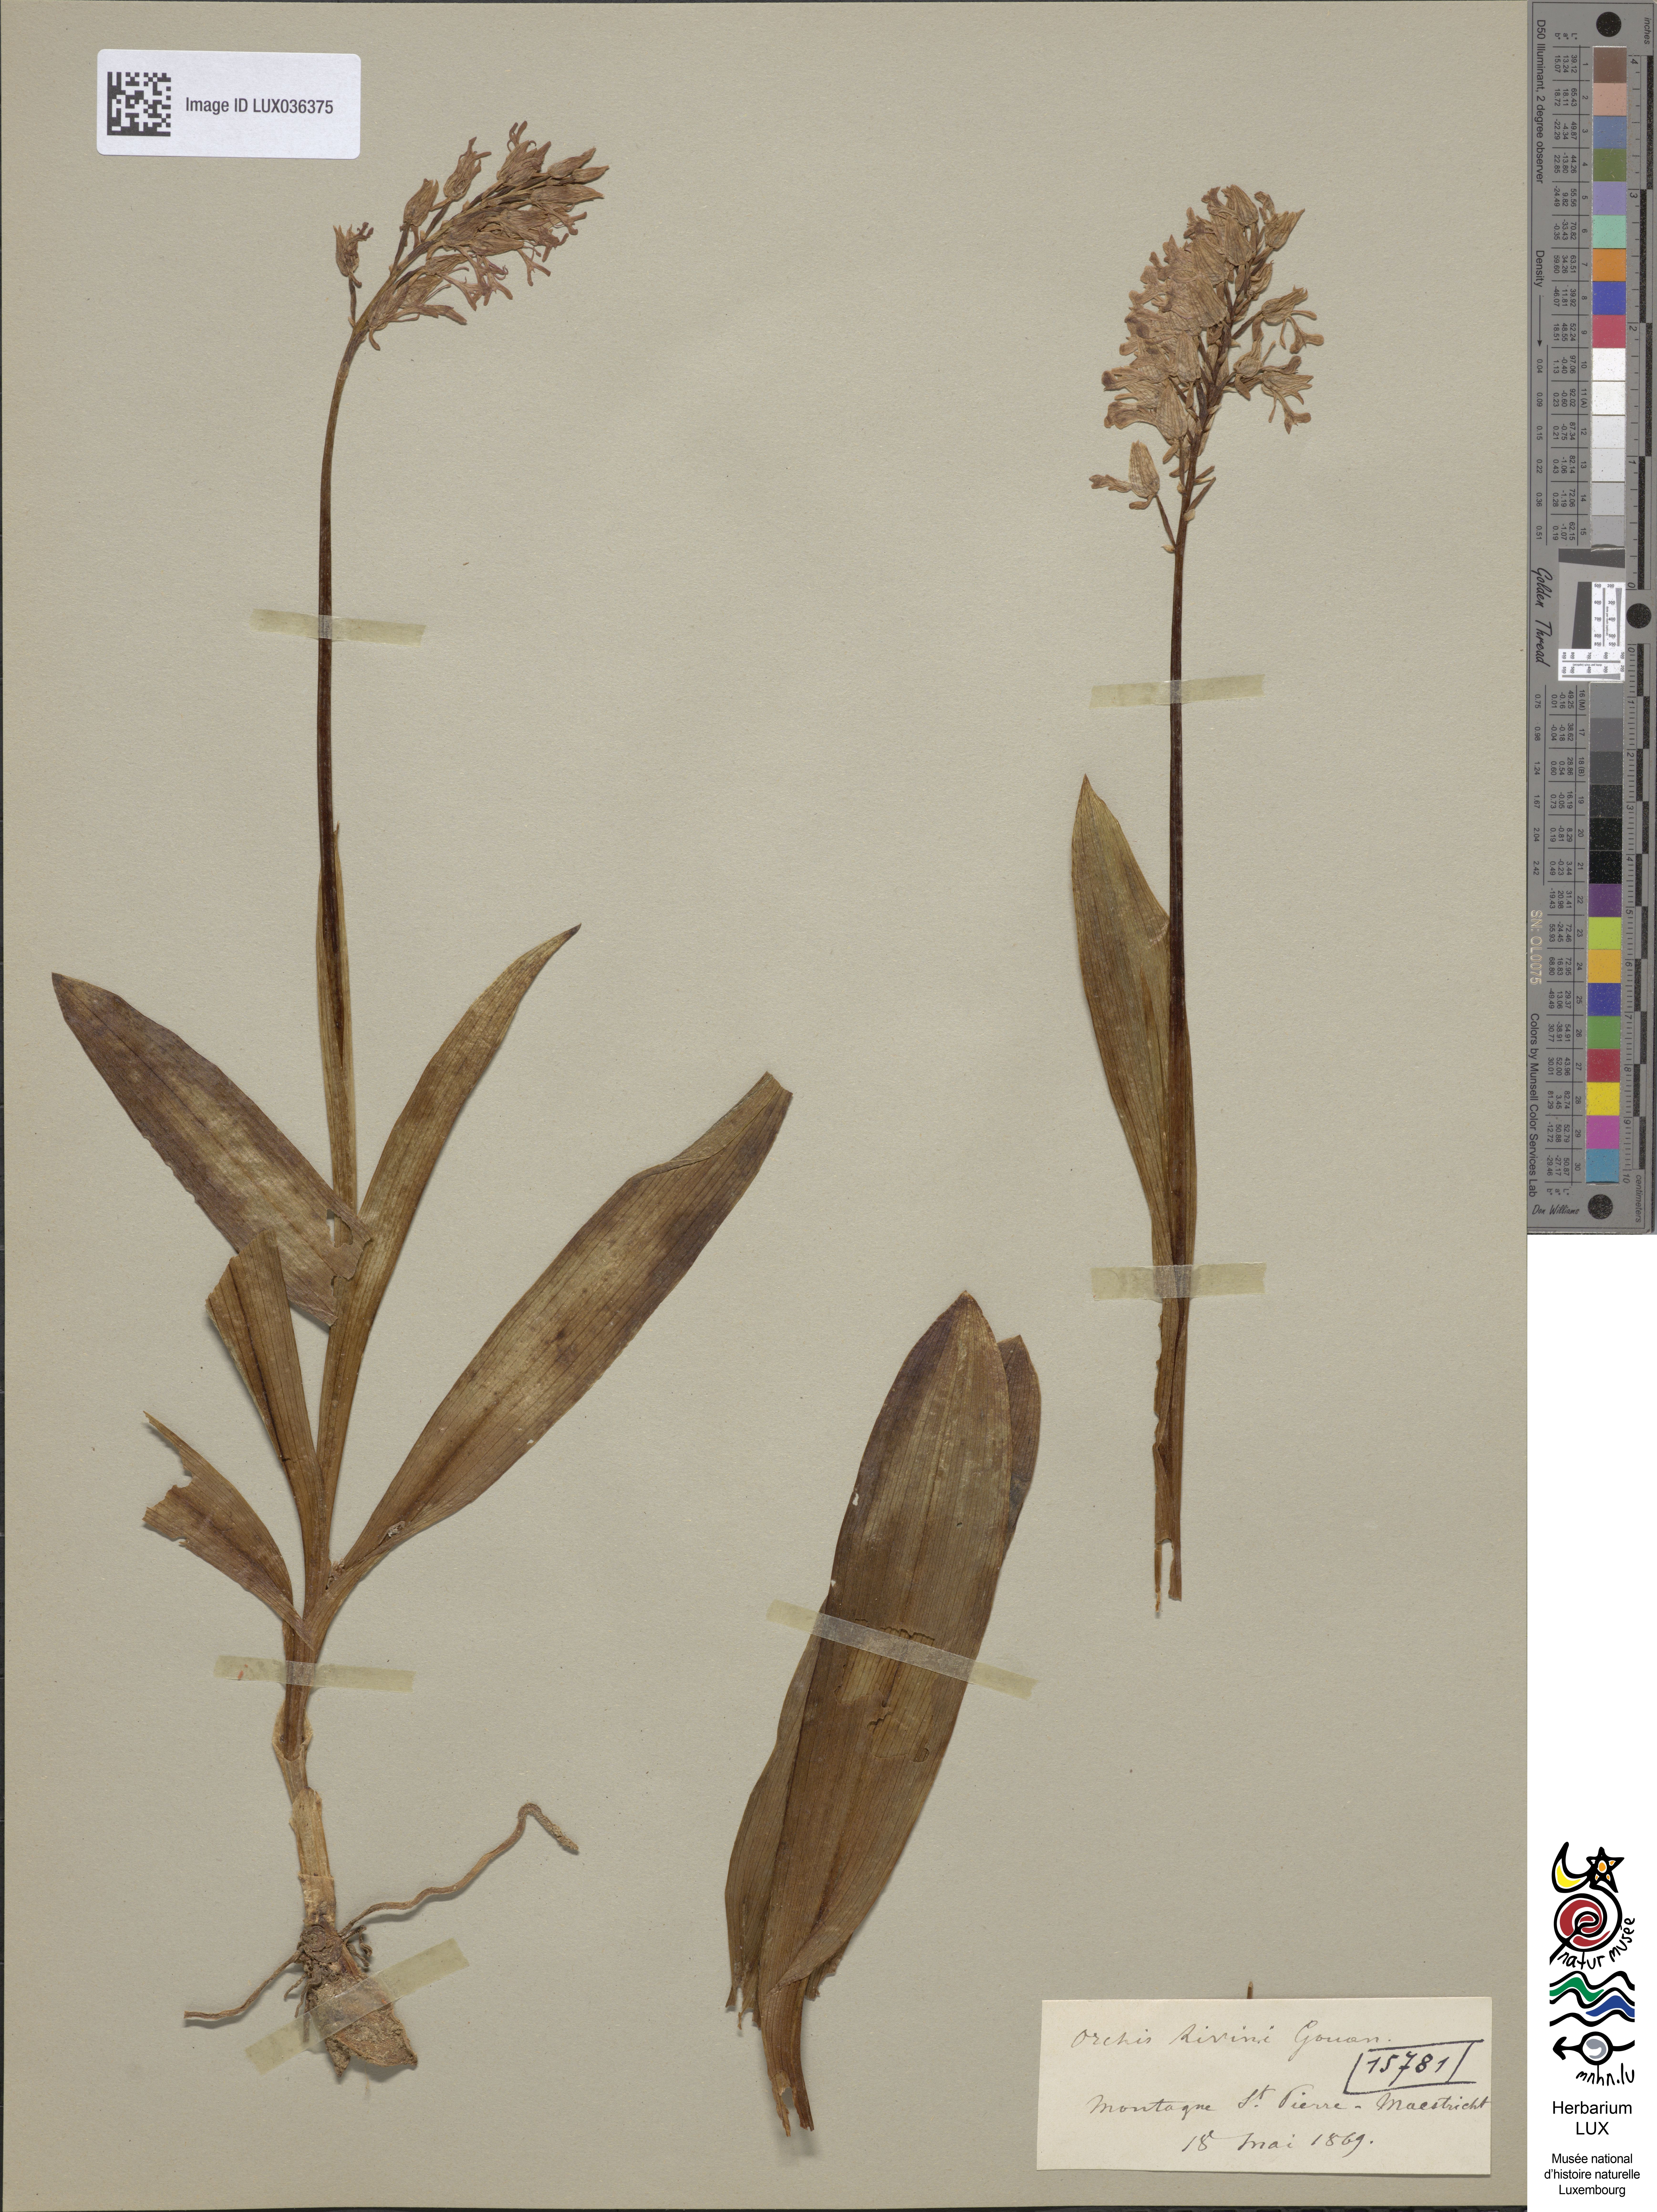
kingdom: Plantae
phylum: Tracheophyta
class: Liliopsida
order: Asparagales
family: Orchidaceae
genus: Orchis
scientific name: Orchis militaris
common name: Military orchid
